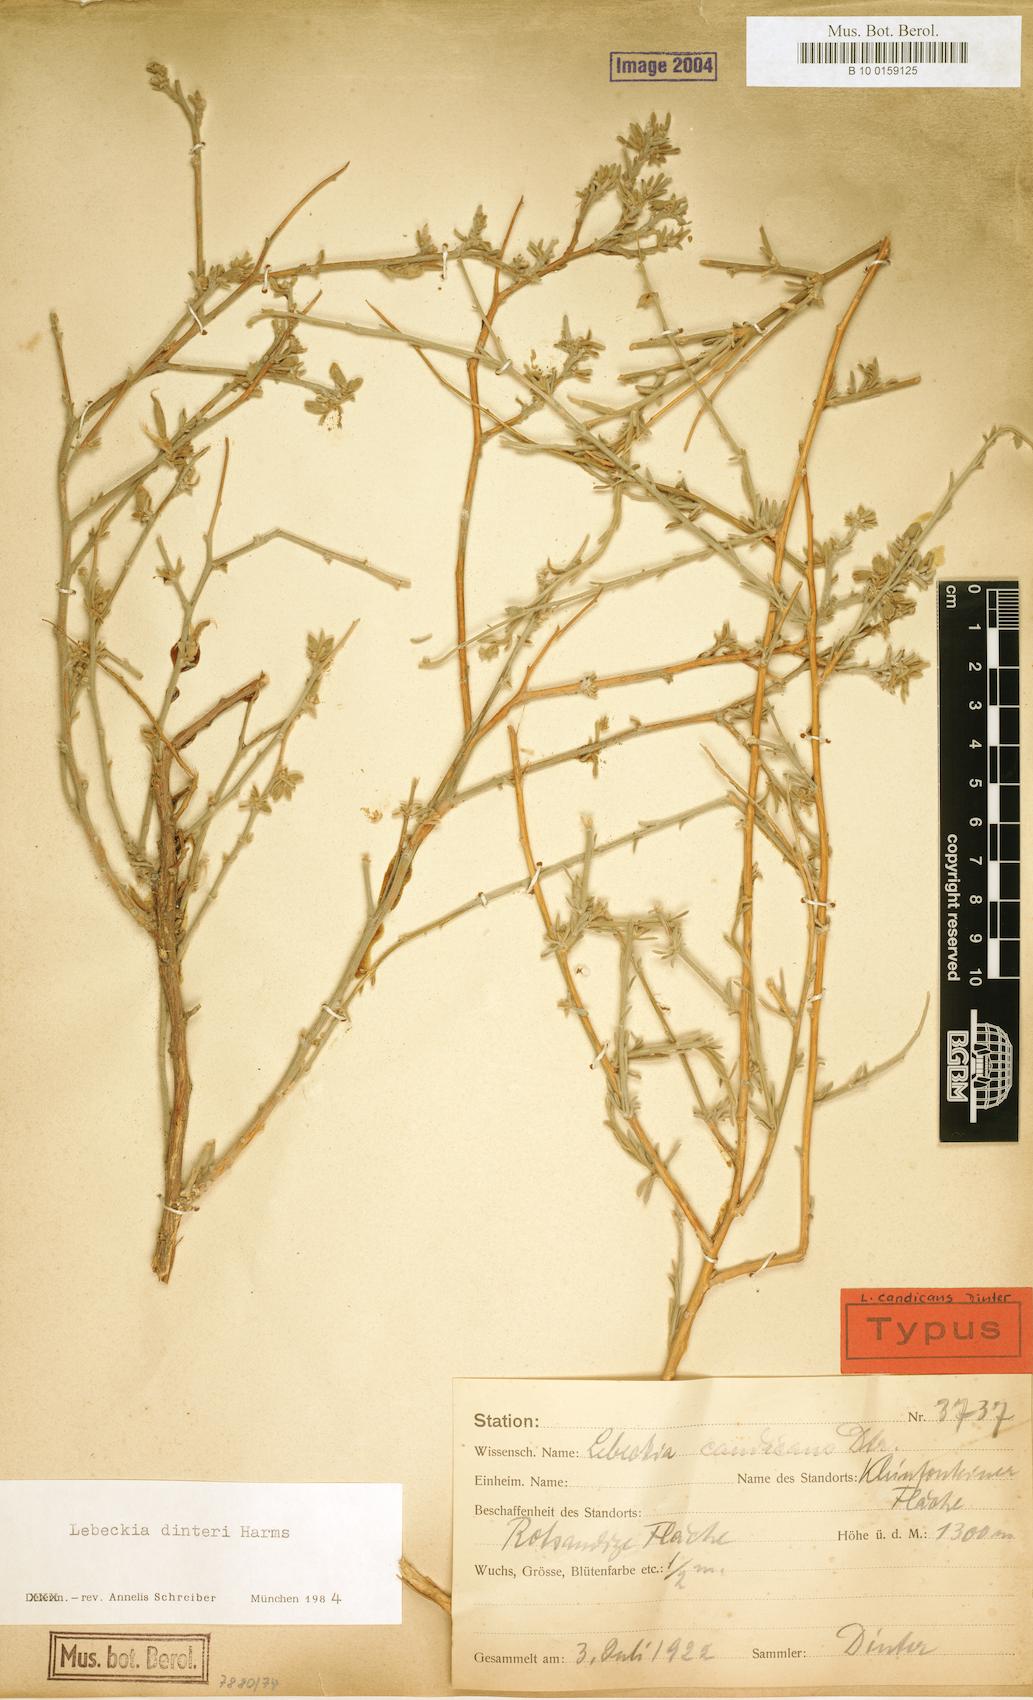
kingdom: Plantae
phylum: Tracheophyta
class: Magnoliopsida
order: Fabales
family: Fabaceae
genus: Calobota
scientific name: Calobota linearifolia
